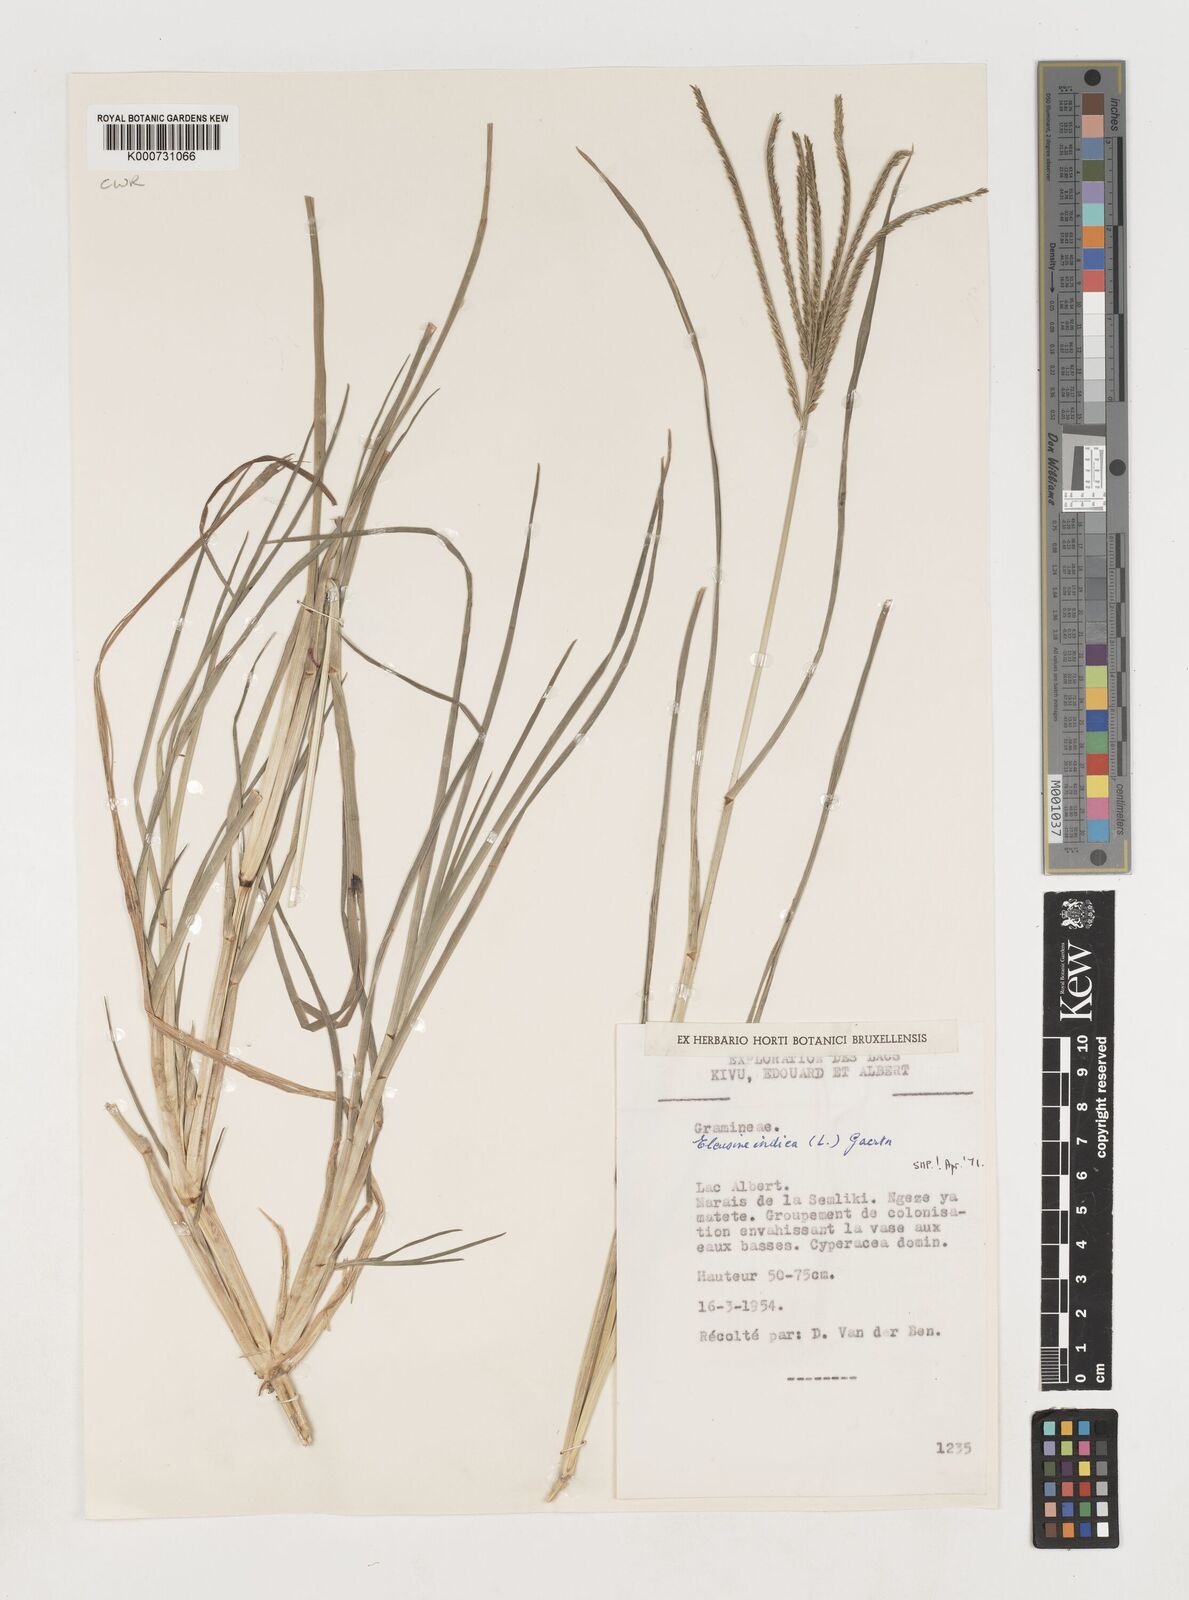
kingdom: Plantae
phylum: Tracheophyta
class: Liliopsida
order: Poales
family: Poaceae
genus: Eleusine
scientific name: Eleusine indica
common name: Yard-grass
